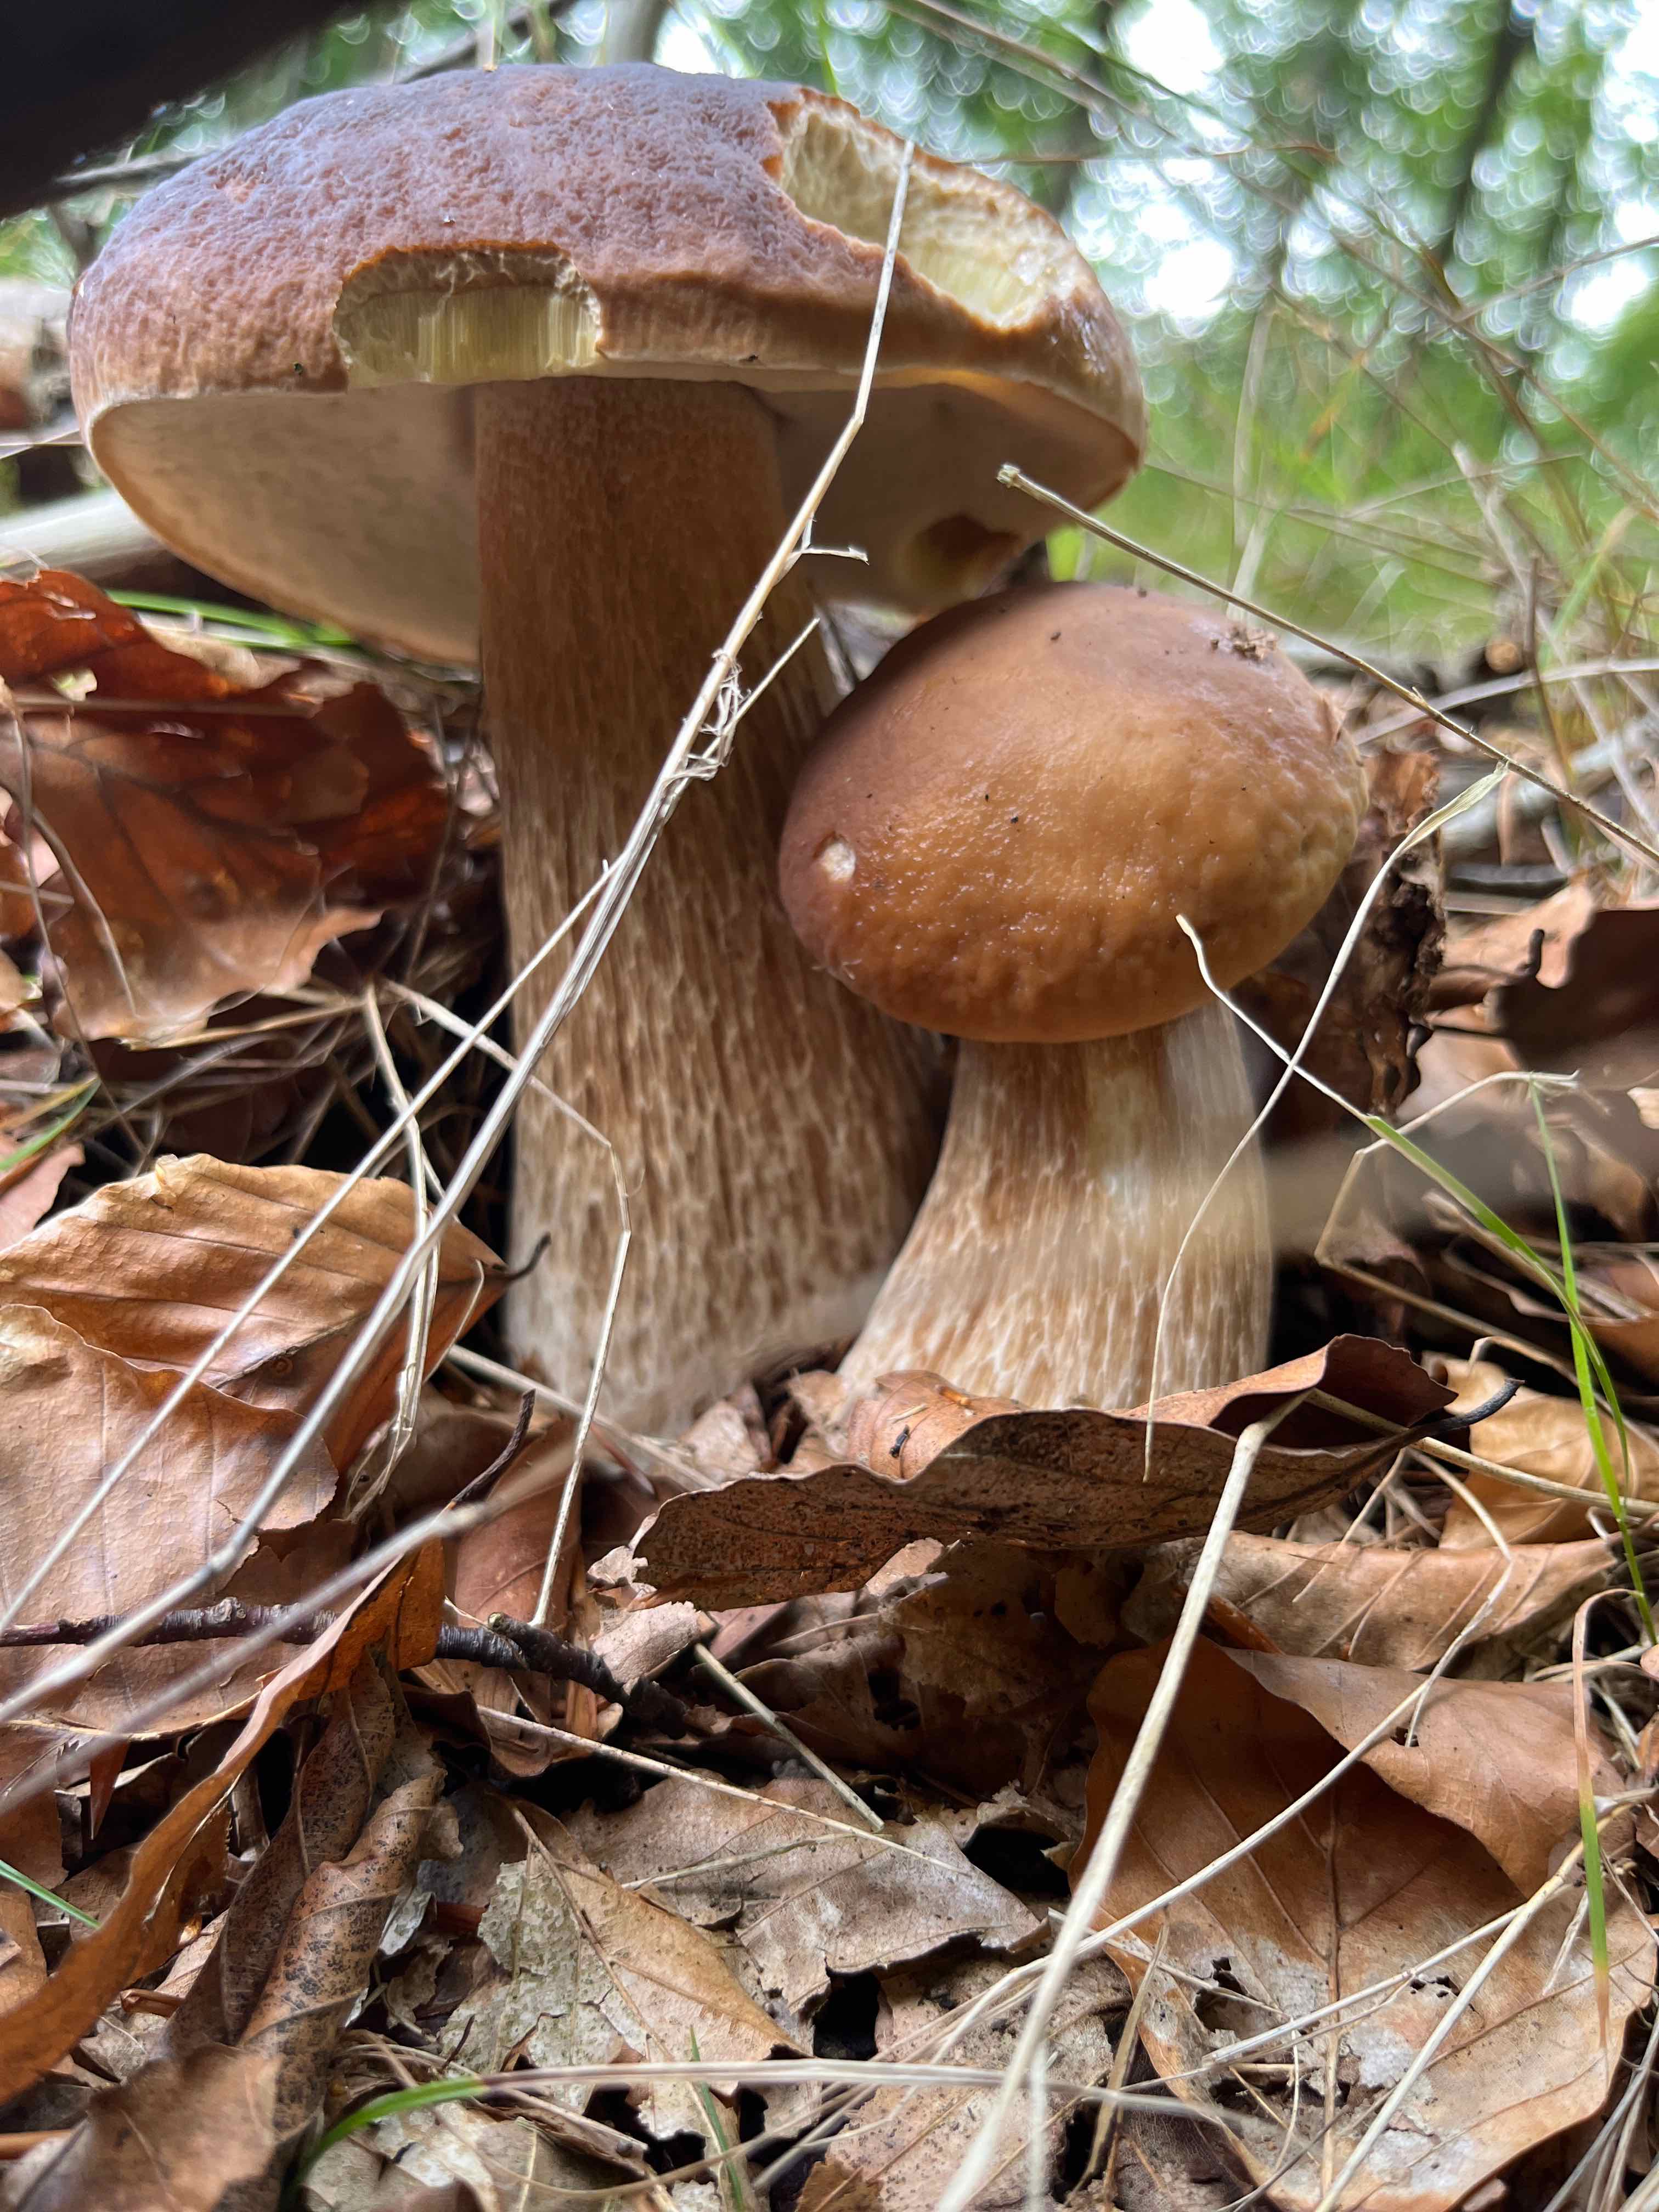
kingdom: Fungi
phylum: Basidiomycota
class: Agaricomycetes
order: Boletales
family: Boletaceae
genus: Boletus
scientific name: Boletus edulis
